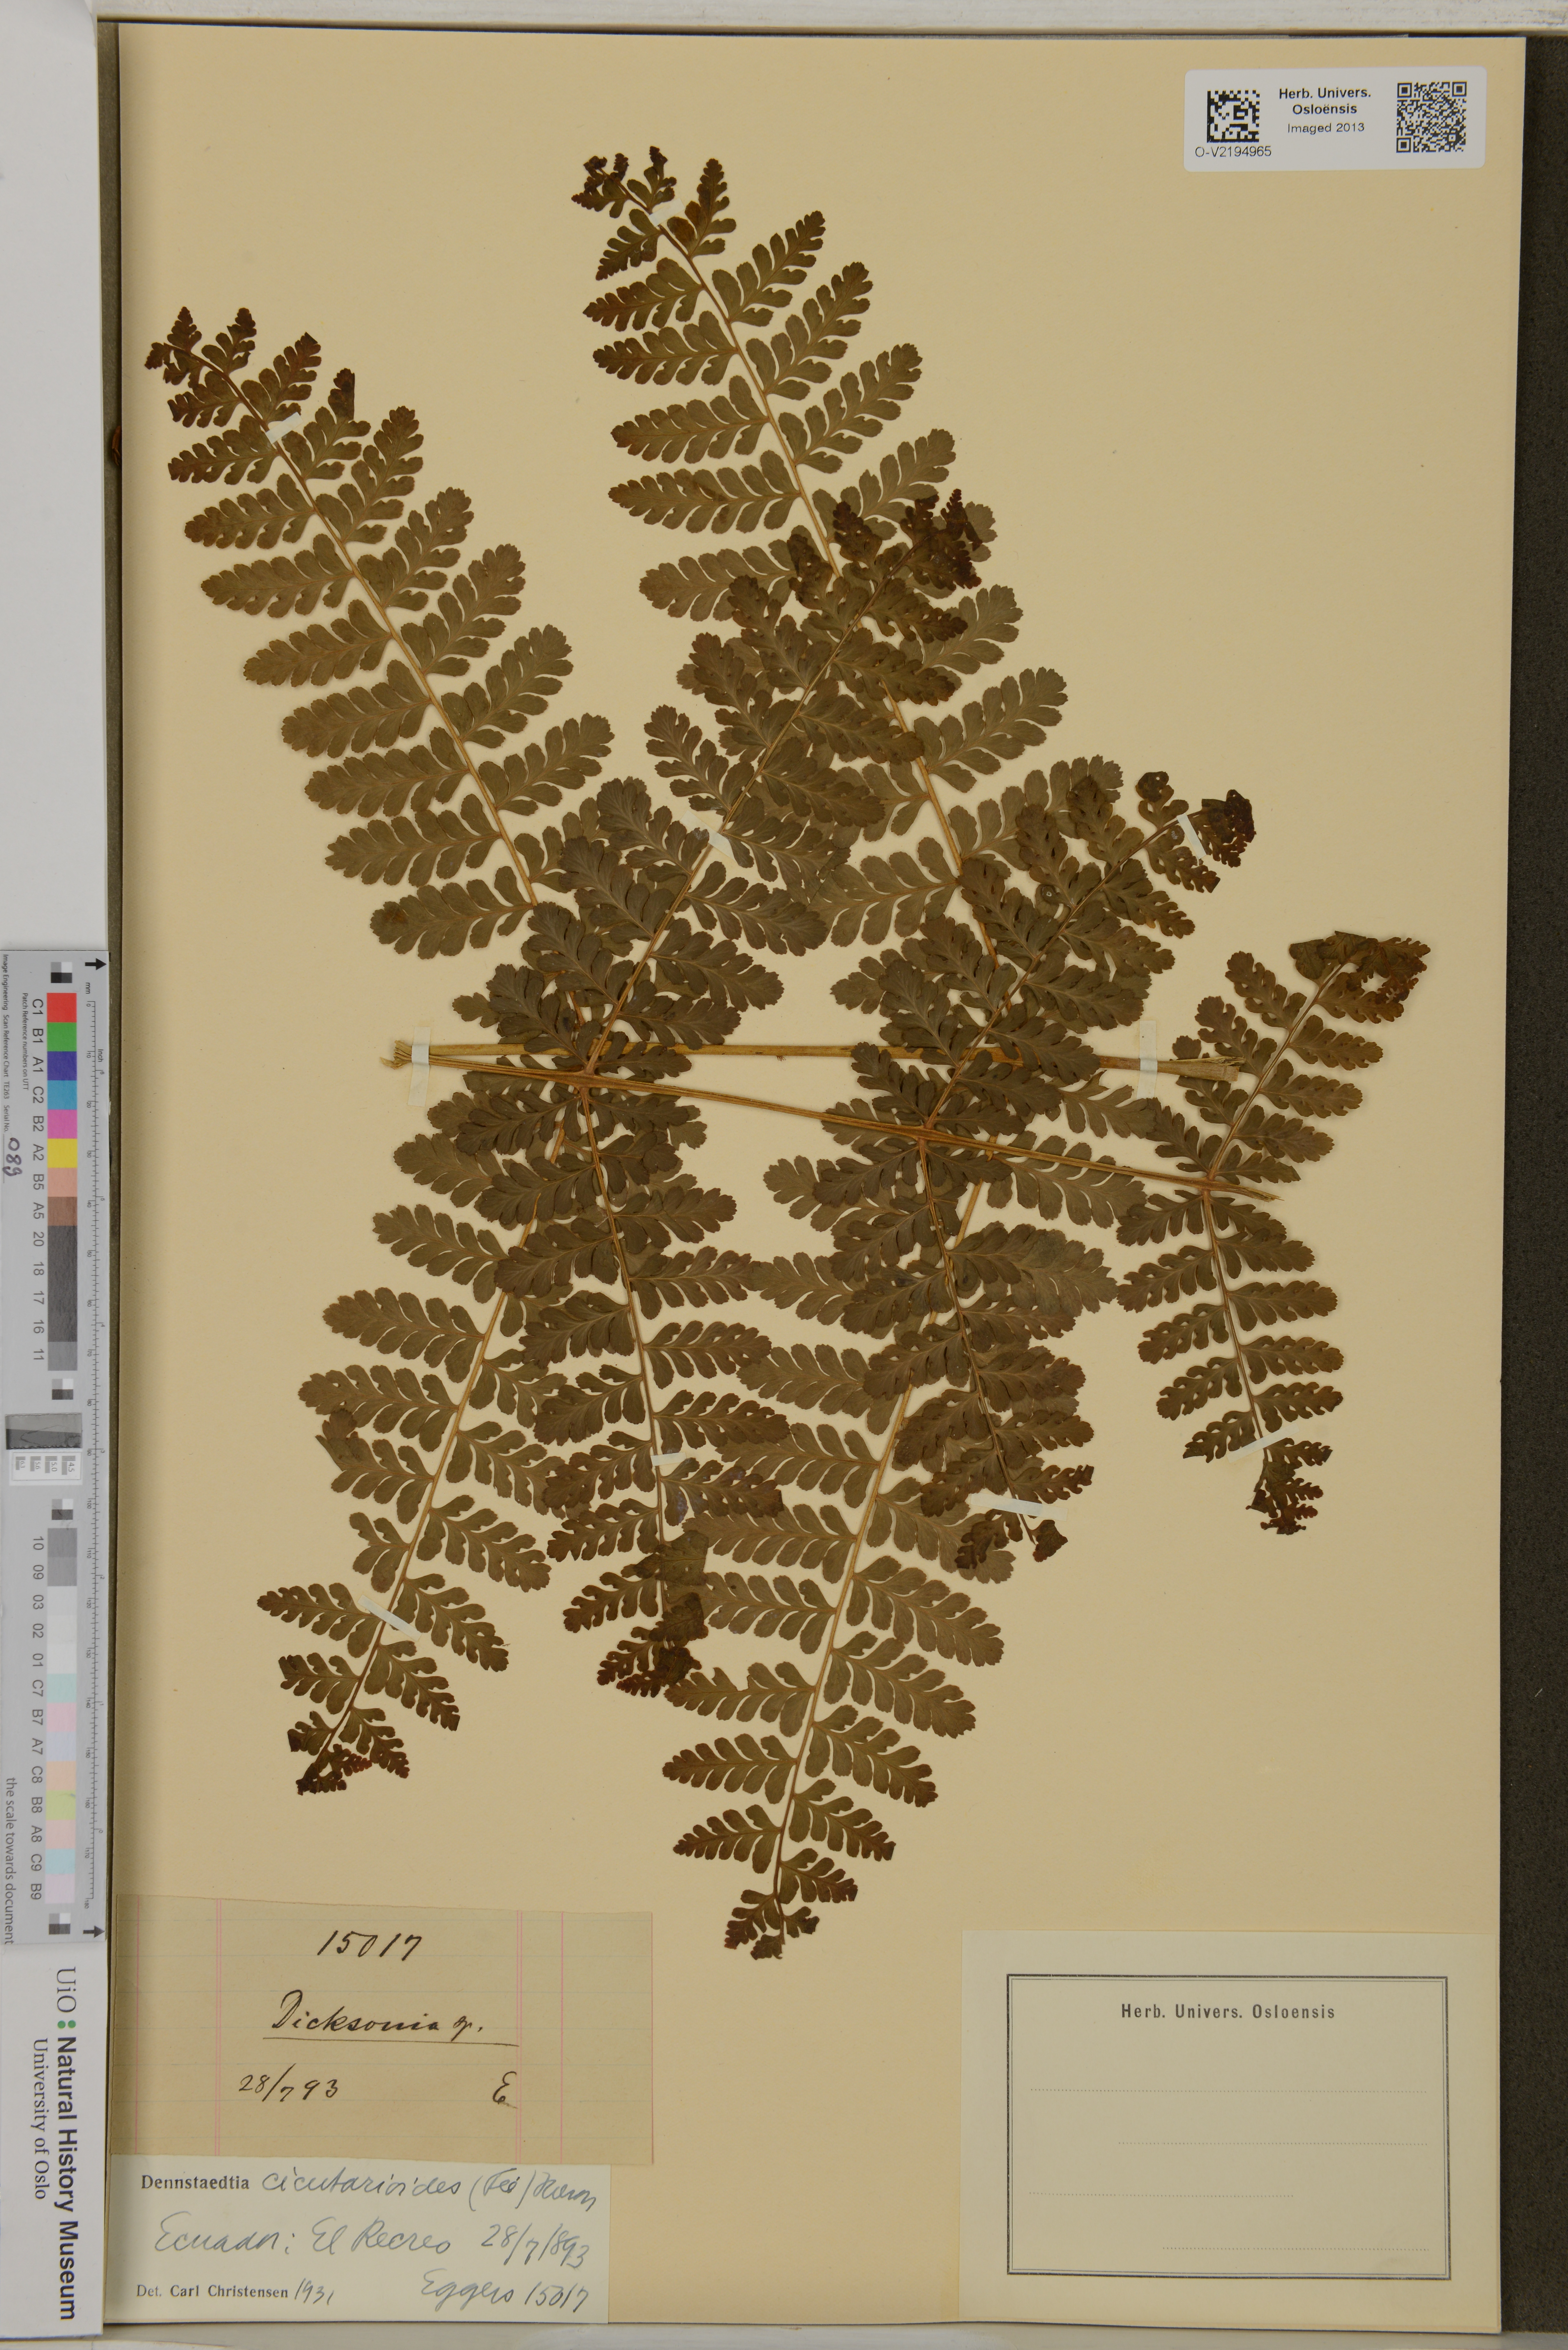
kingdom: Plantae
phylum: Tracheophyta
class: Polypodiopsida
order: Cyatheales
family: Dicksoniaceae
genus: Dicksonia
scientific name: Dicksonia
